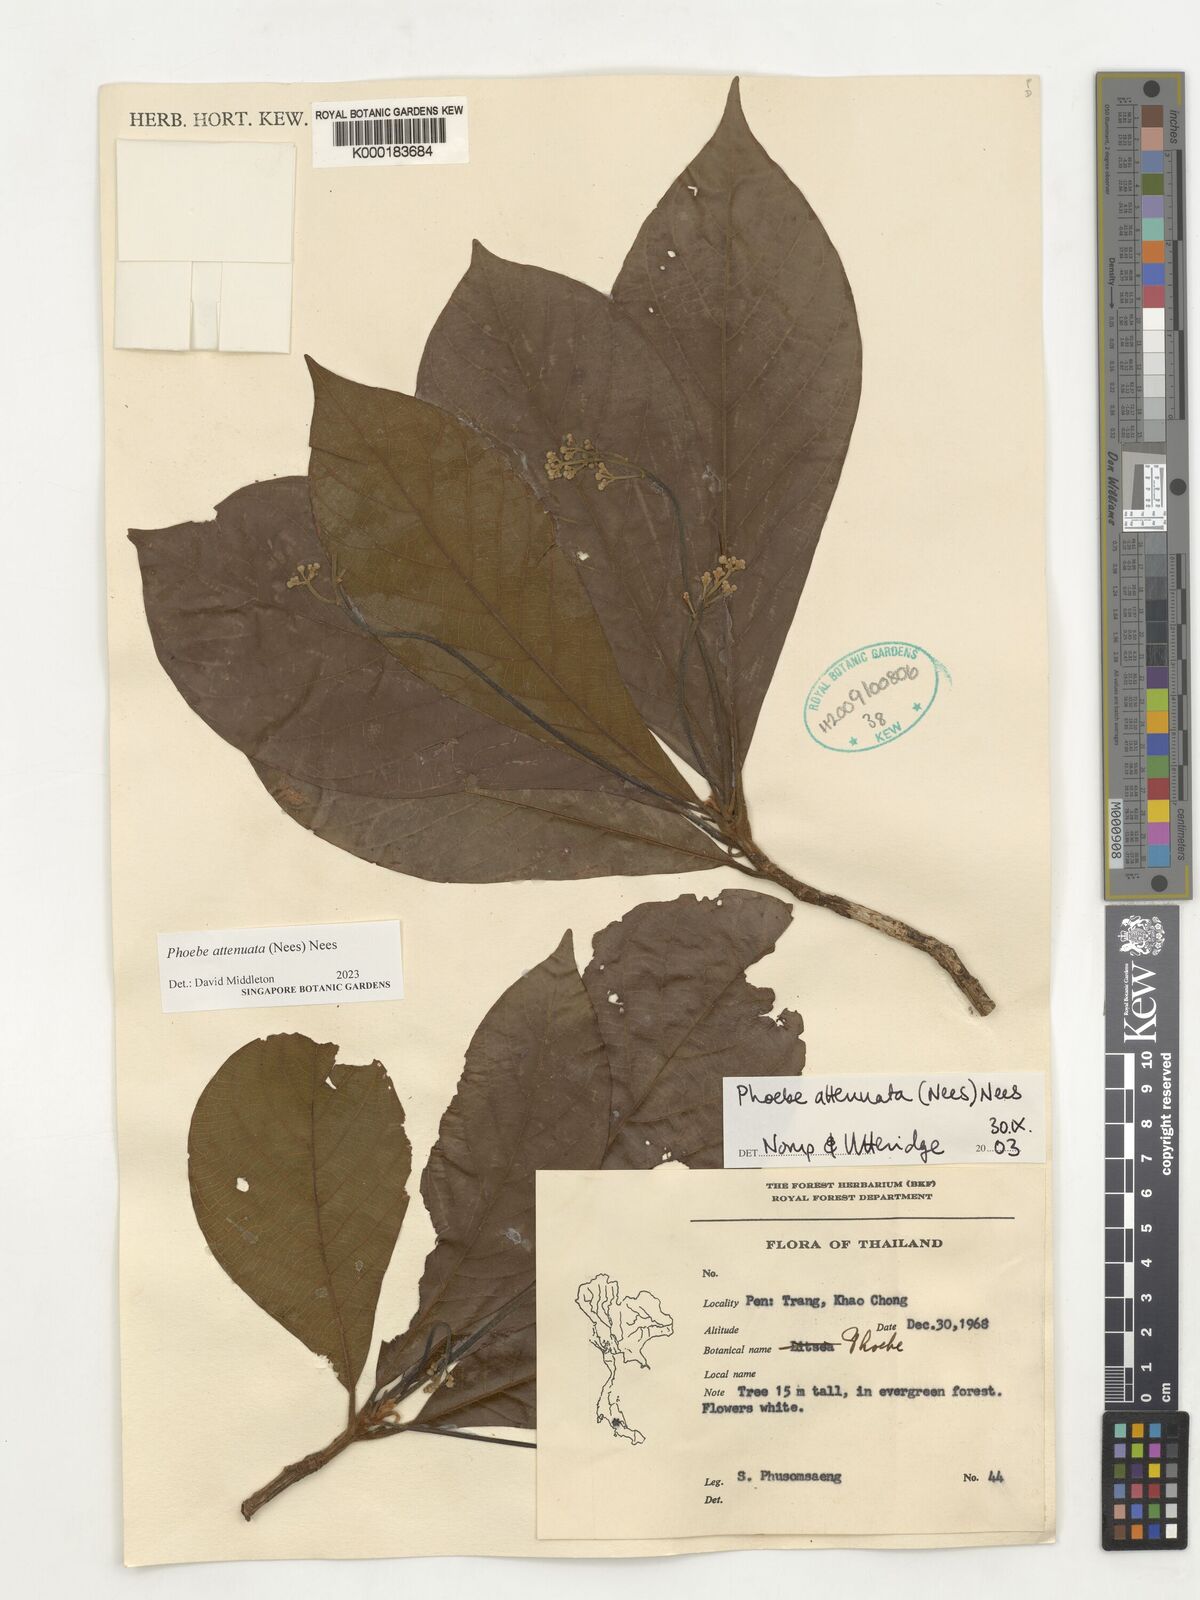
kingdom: Plantae
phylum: Tracheophyta
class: Magnoliopsida
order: Laurales
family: Lauraceae
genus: Phoebe
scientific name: Phoebe attenuata
